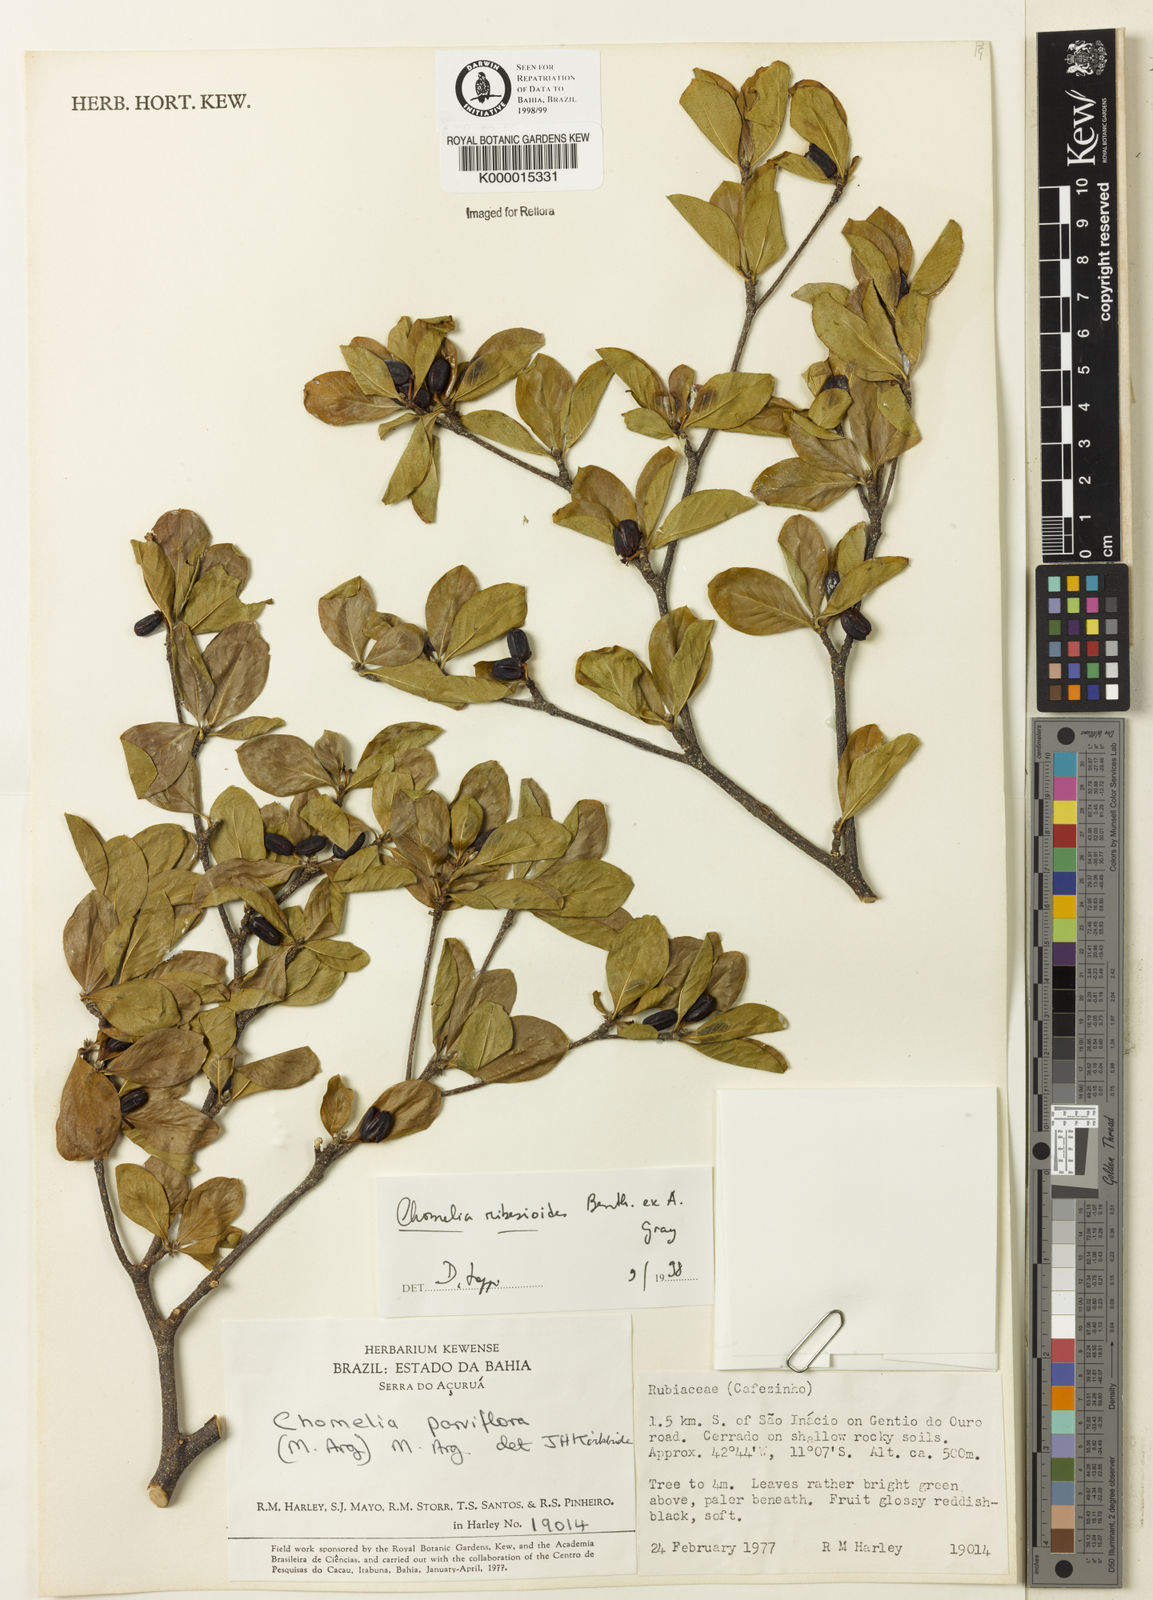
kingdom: Plantae
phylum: Tracheophyta
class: Magnoliopsida
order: Gentianales
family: Rubiaceae
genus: Chomelia
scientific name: Chomelia ribesioides
